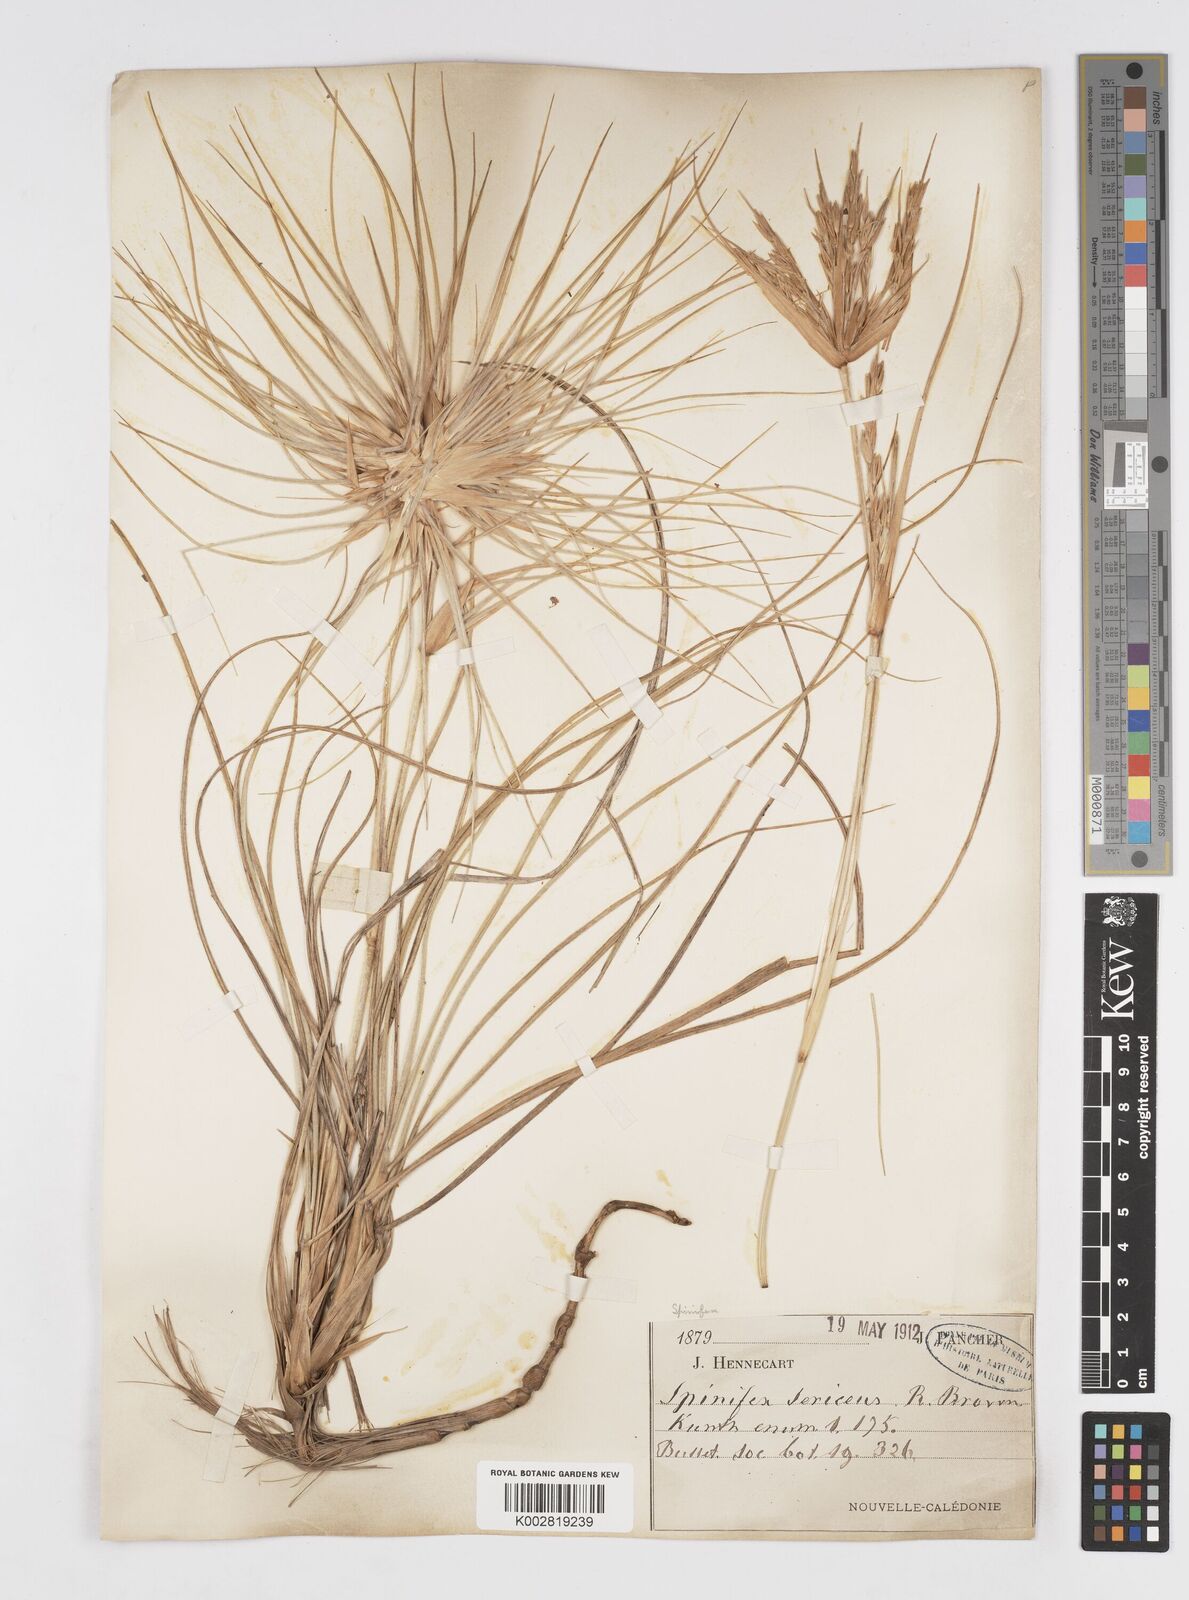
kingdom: Plantae
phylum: Tracheophyta
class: Liliopsida
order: Poales
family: Poaceae
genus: Spinifex
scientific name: Spinifex sericeus
